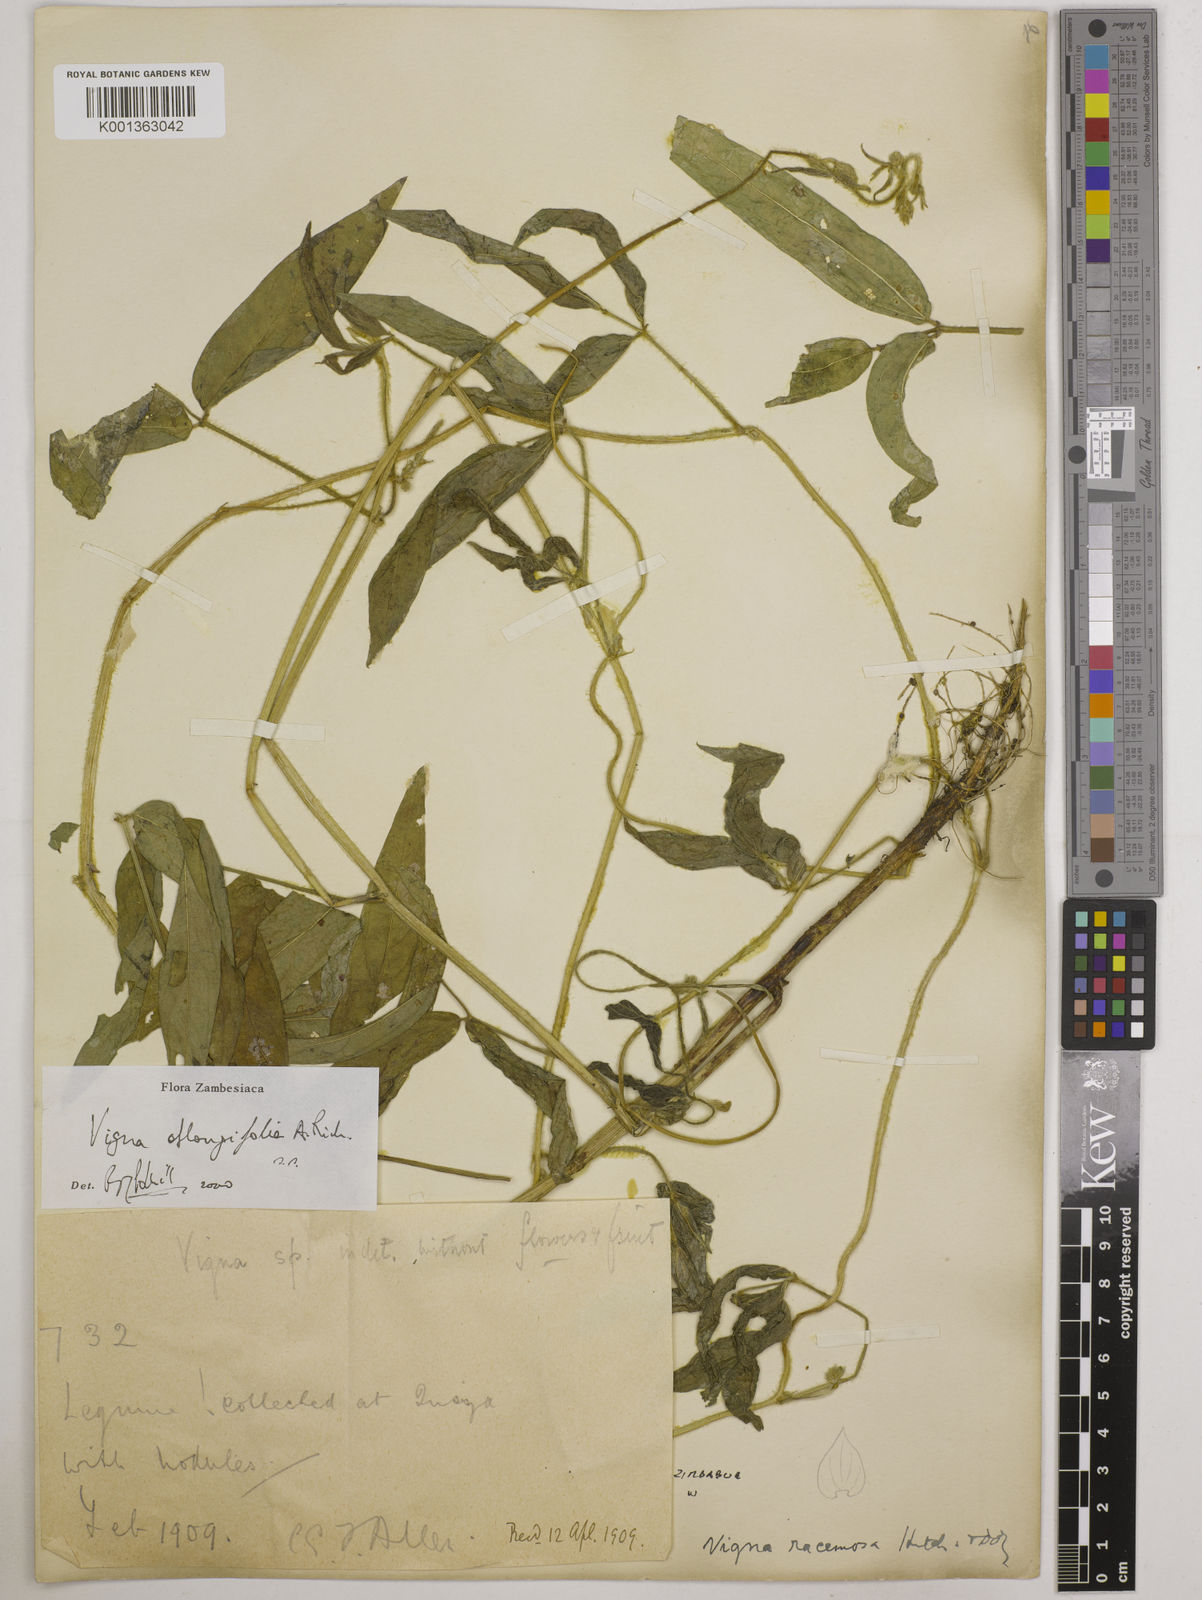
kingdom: Plantae
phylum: Tracheophyta
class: Magnoliopsida
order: Fabales
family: Fabaceae
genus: Vigna
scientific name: Vigna oblongifolia
